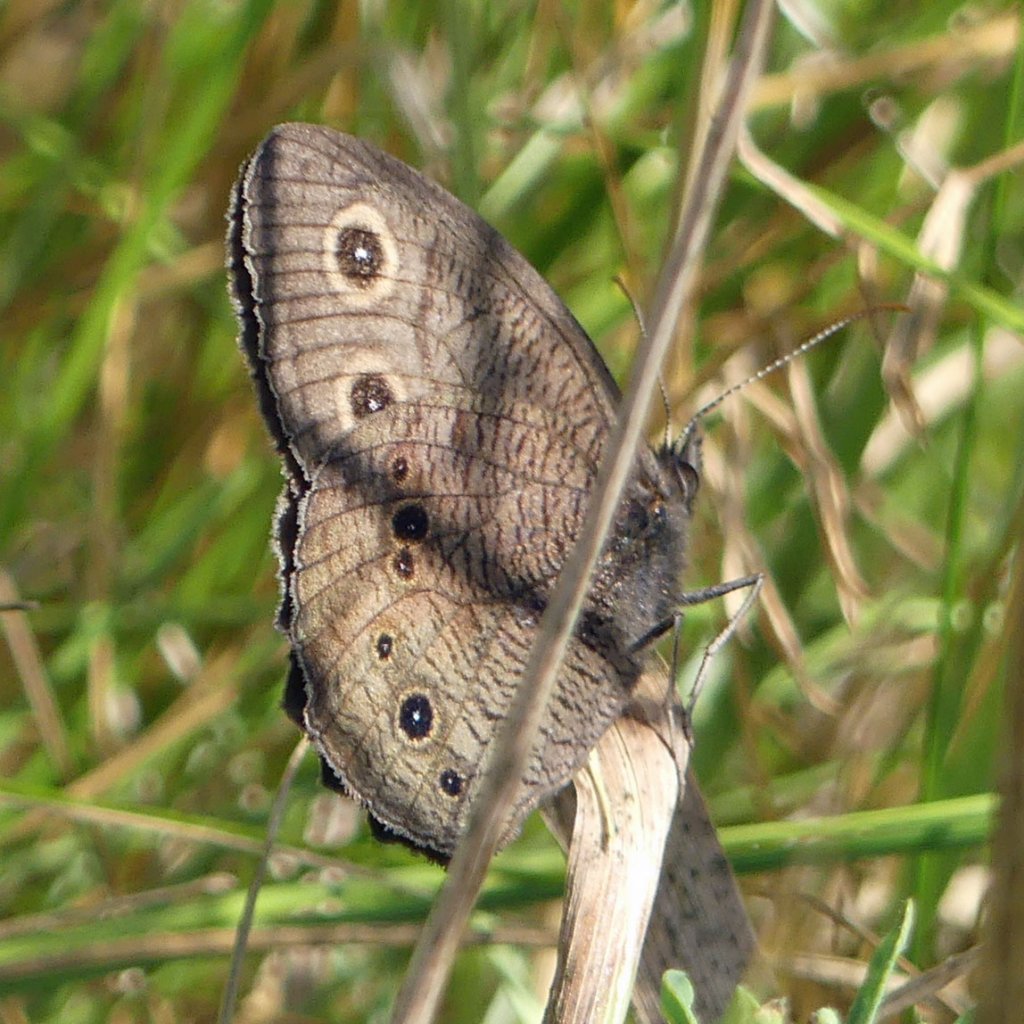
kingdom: Animalia
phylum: Arthropoda
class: Insecta
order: Lepidoptera
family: Nymphalidae
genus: Cercyonis
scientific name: Cercyonis pegala
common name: Common Wood-Nymph
